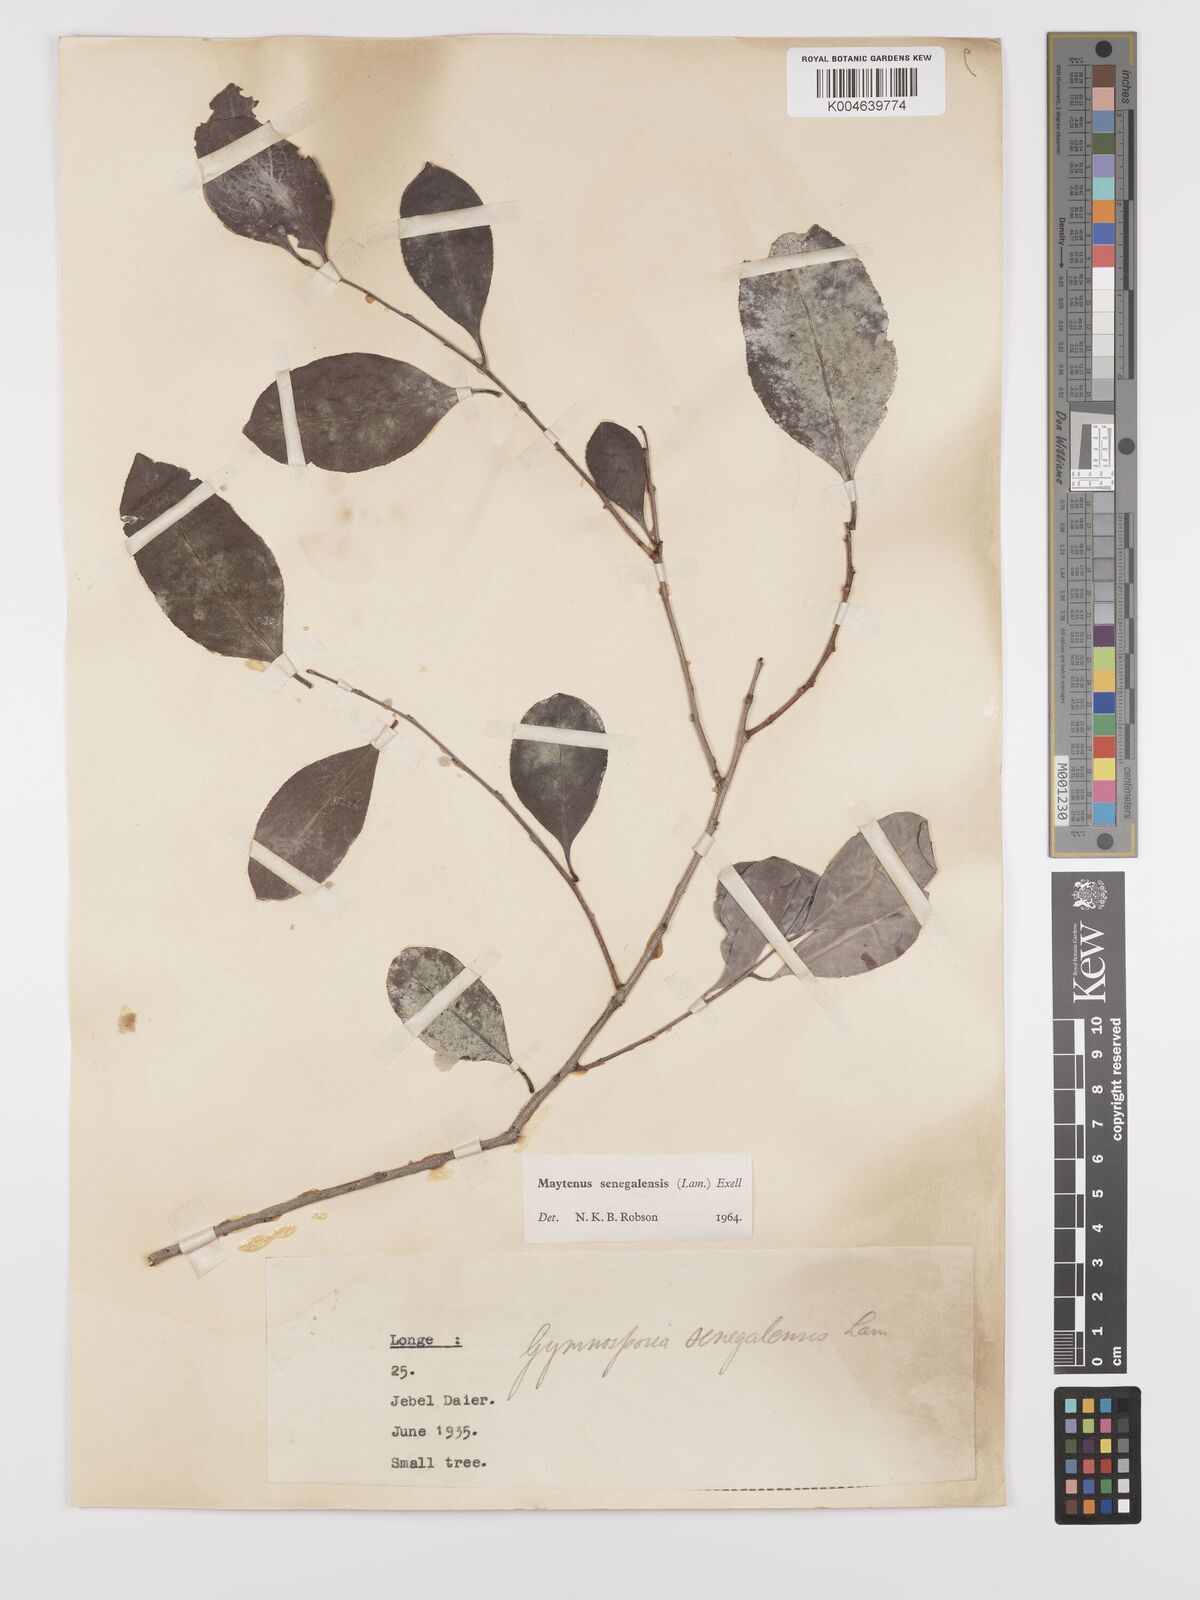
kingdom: Plantae
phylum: Tracheophyta
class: Magnoliopsida
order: Celastrales
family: Celastraceae
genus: Gymnosporia
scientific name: Gymnosporia senegalensis
